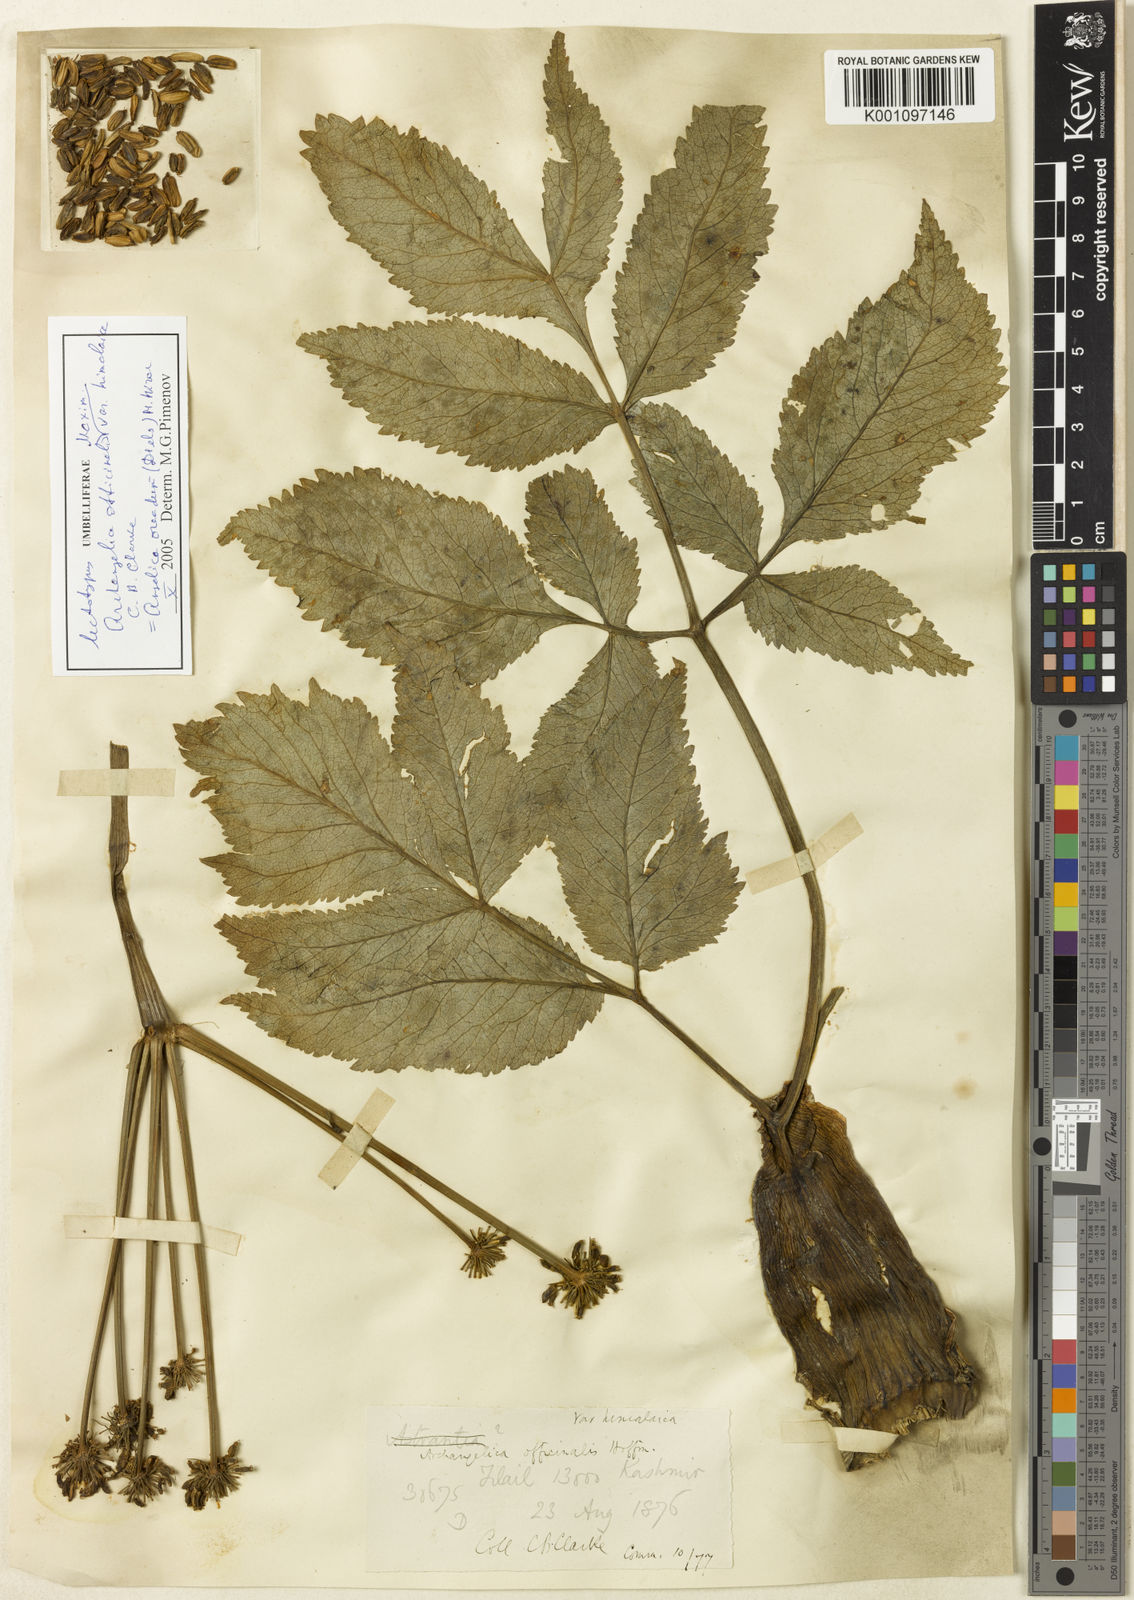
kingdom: Plantae
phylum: Tracheophyta
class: Magnoliopsida
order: Apiales
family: Apiaceae
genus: Angelica
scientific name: Angelica oreada
